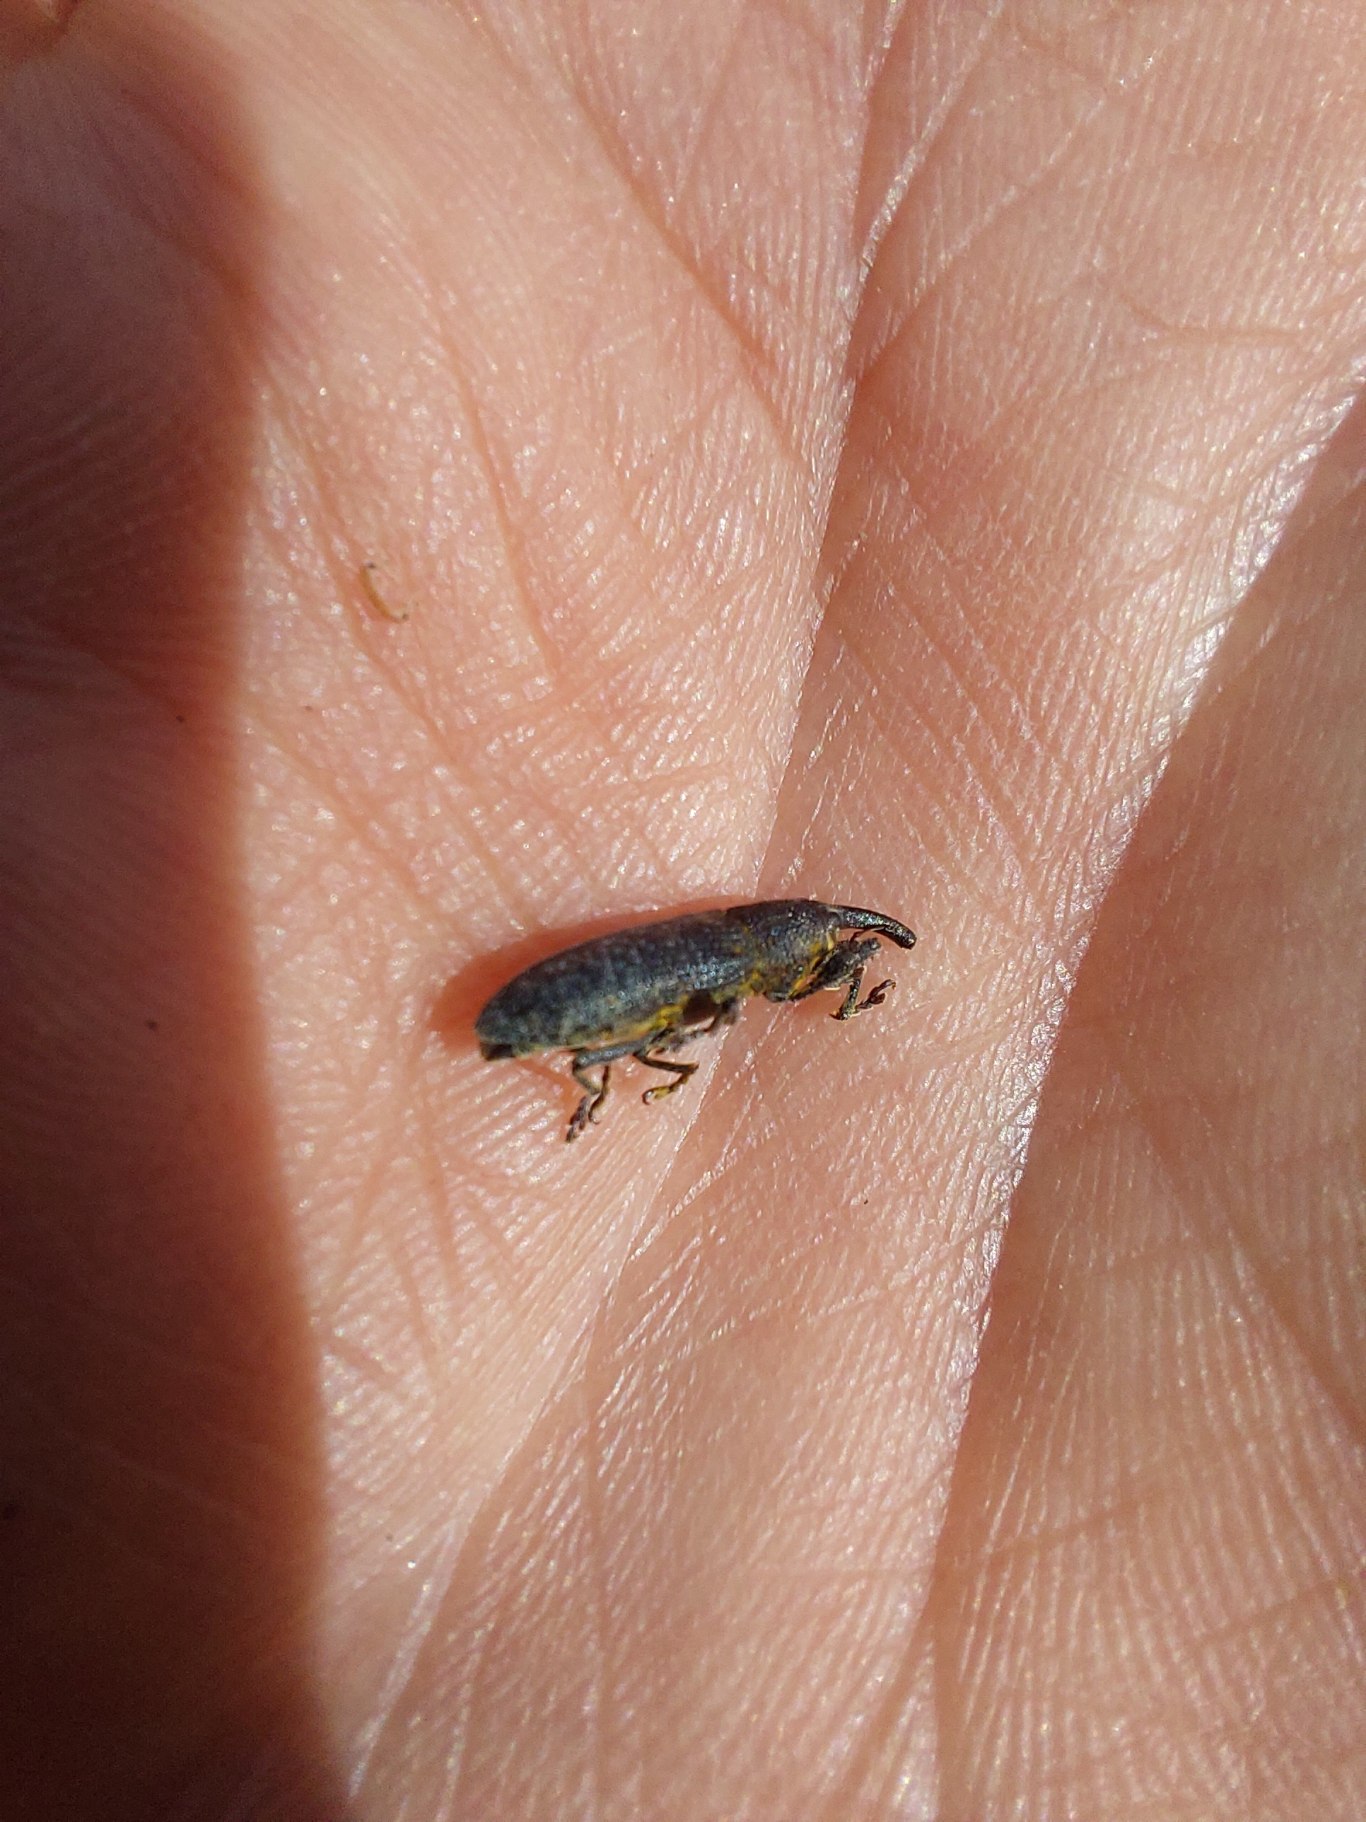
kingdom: Animalia
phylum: Arthropoda
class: Insecta
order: Coleoptera
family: Curculionidae
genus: Lixus
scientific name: Lixus bardanae
